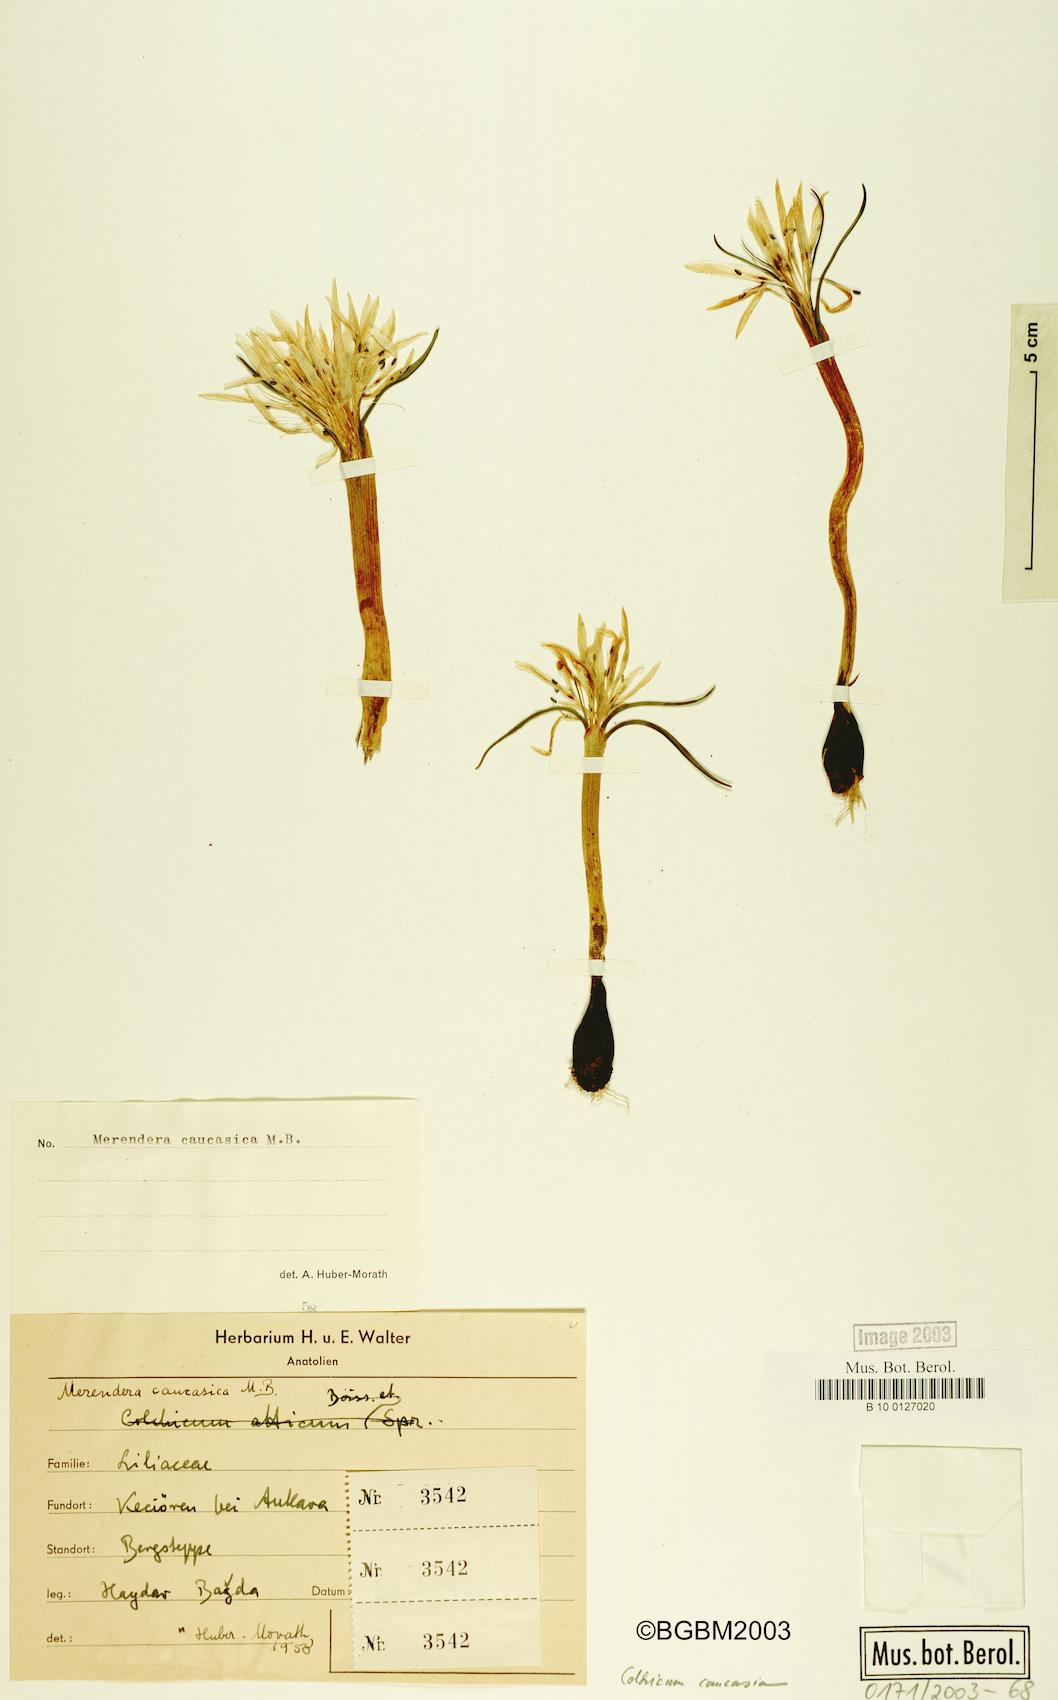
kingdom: Plantae
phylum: Tracheophyta
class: Liliopsida
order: Liliales
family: Colchicaceae
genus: Colchicum
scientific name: Colchicum trigynum
